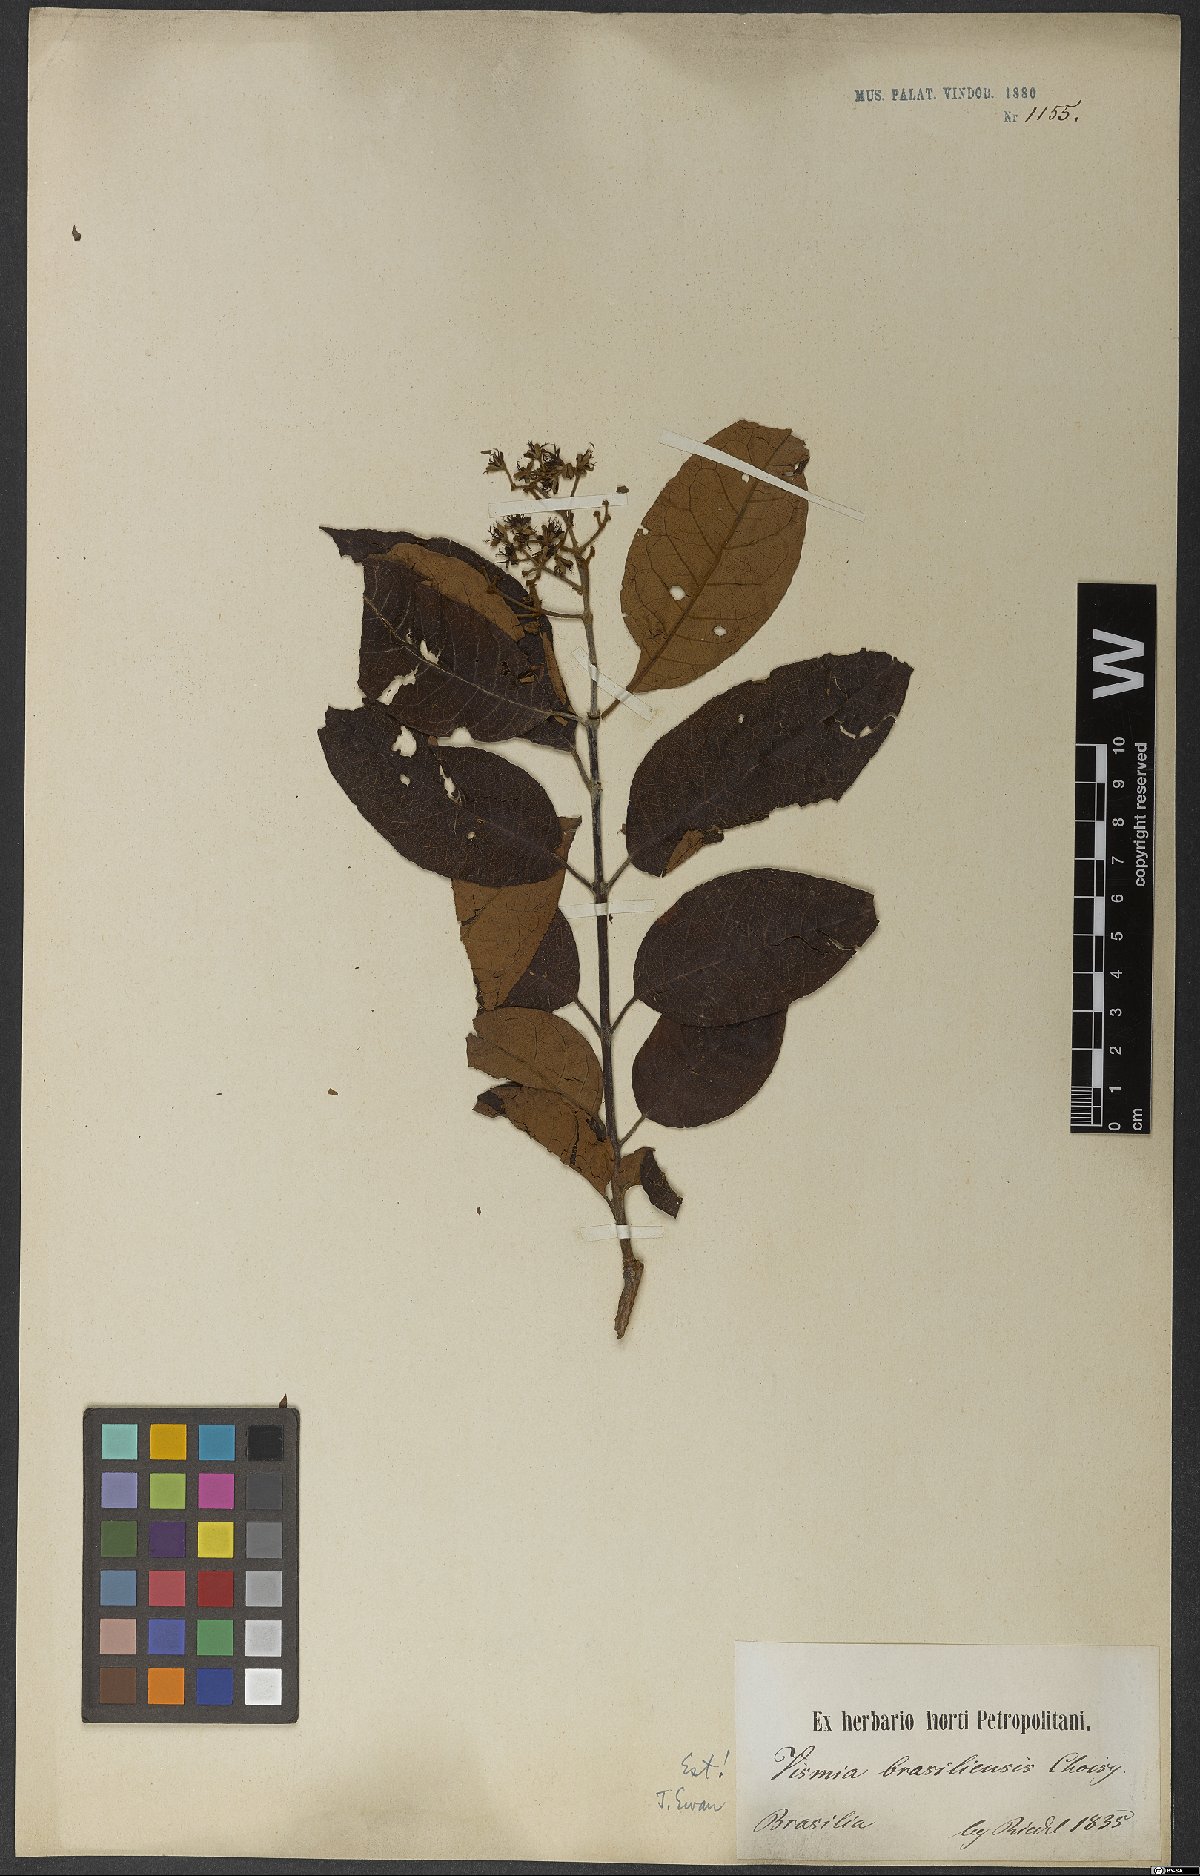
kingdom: Plantae
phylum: Tracheophyta
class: Magnoliopsida
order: Malpighiales
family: Hypericaceae
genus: Vismia
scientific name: Vismia brasiliensis
